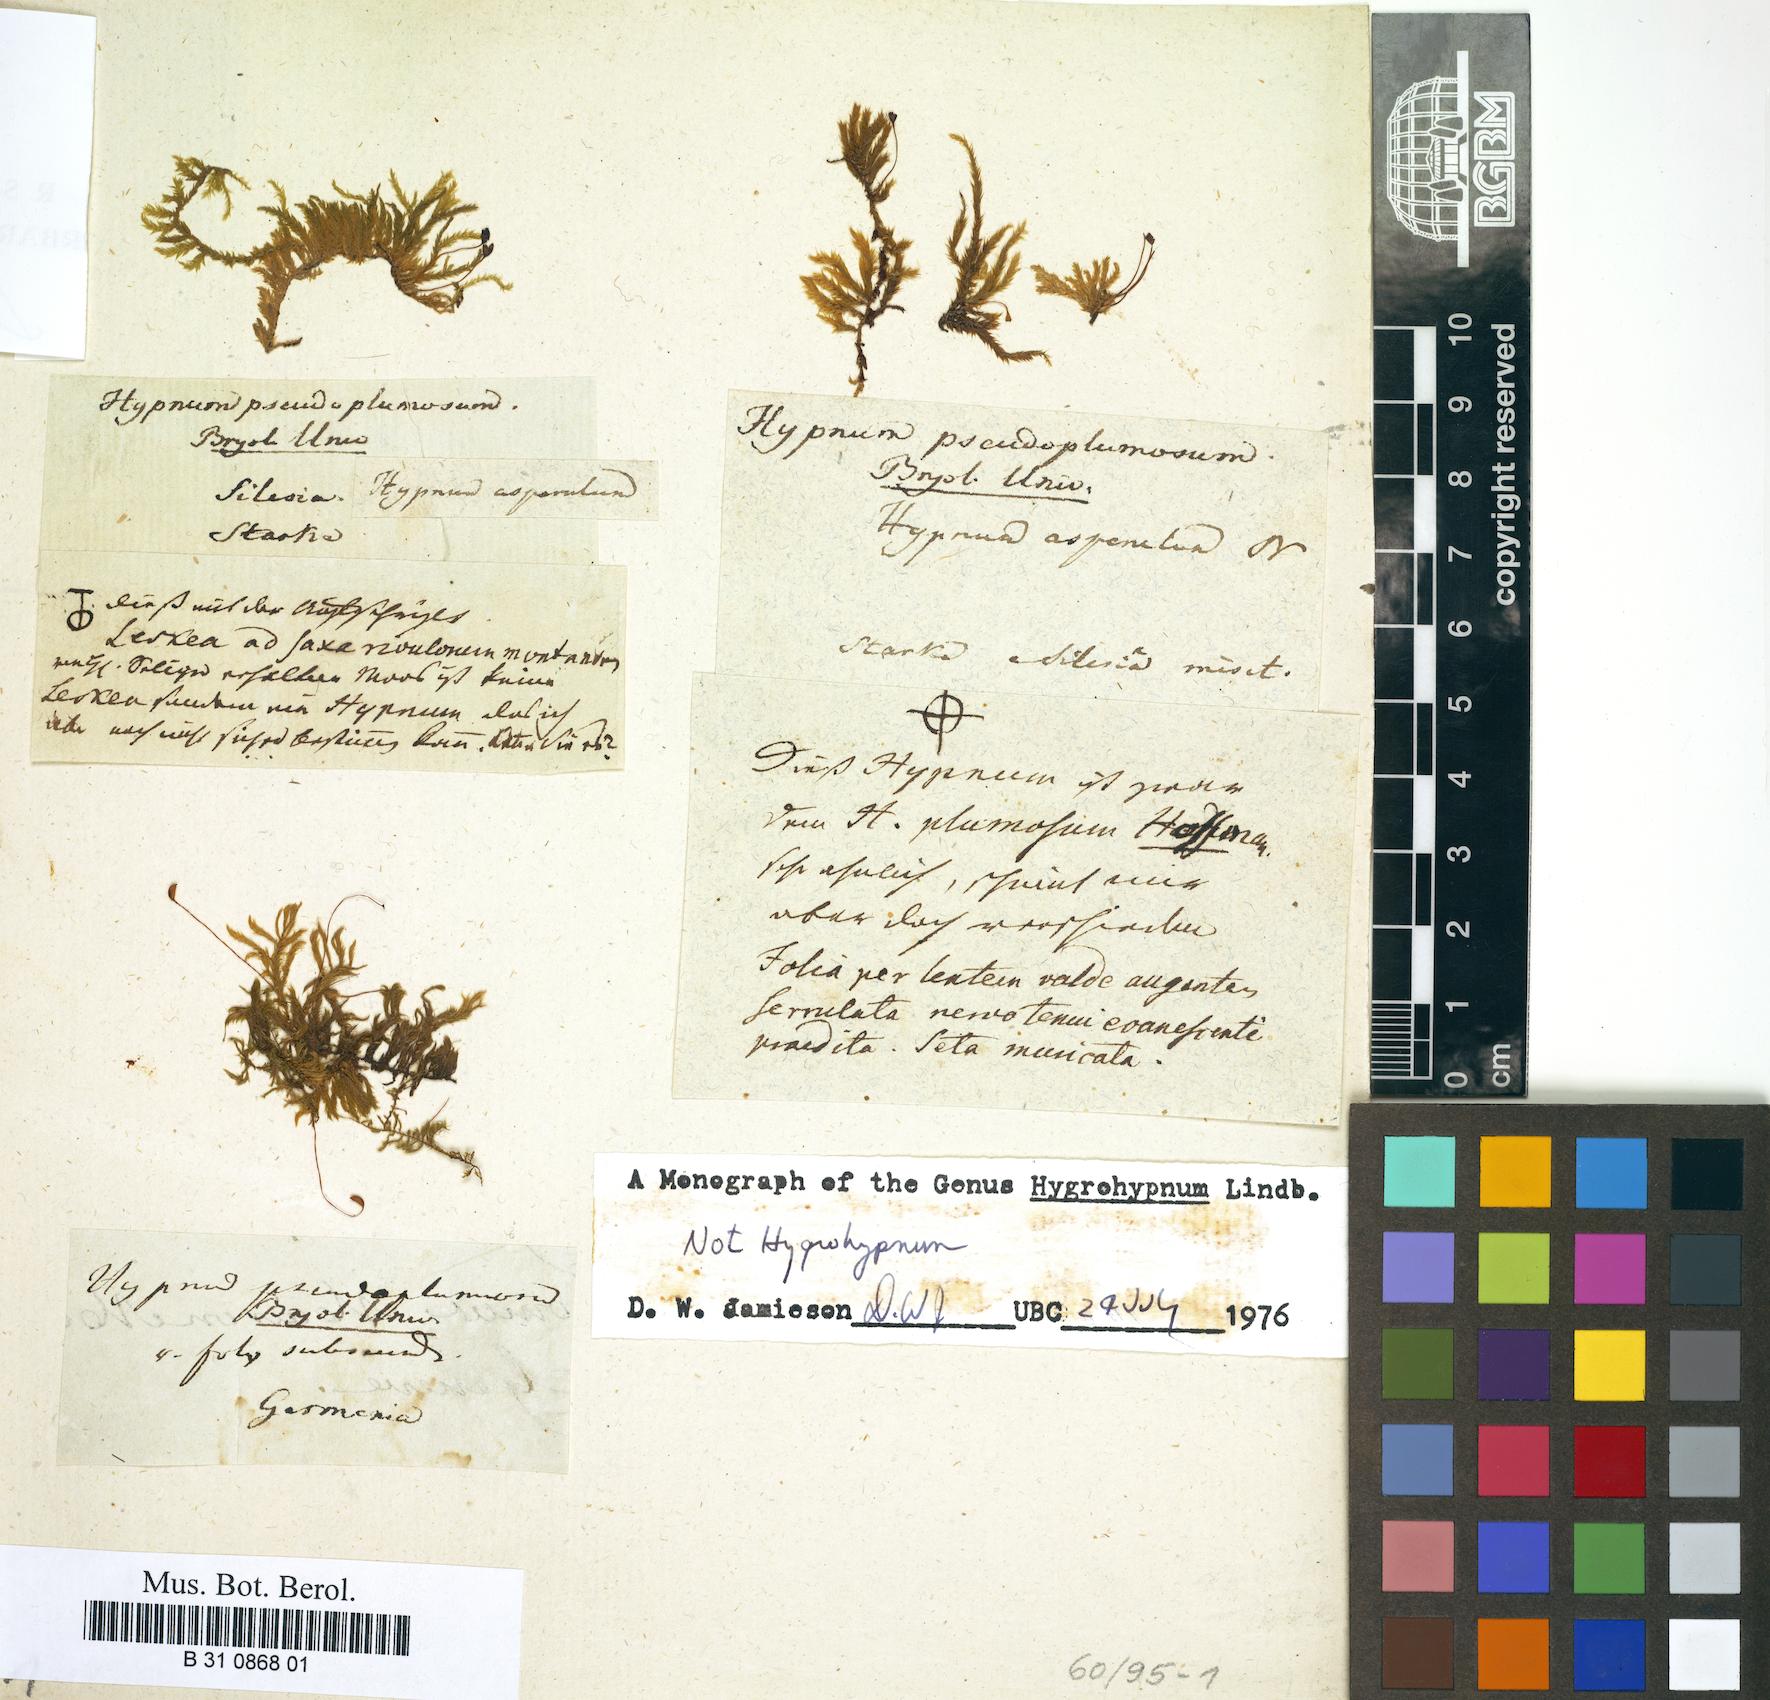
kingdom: Plantae
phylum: Bryophyta
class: Bryopsida
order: Hypnales
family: Brachytheciaceae
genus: Sciuro-hypnum
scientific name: Sciuro-hypnum plumosum
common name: Rusty feather-moss
